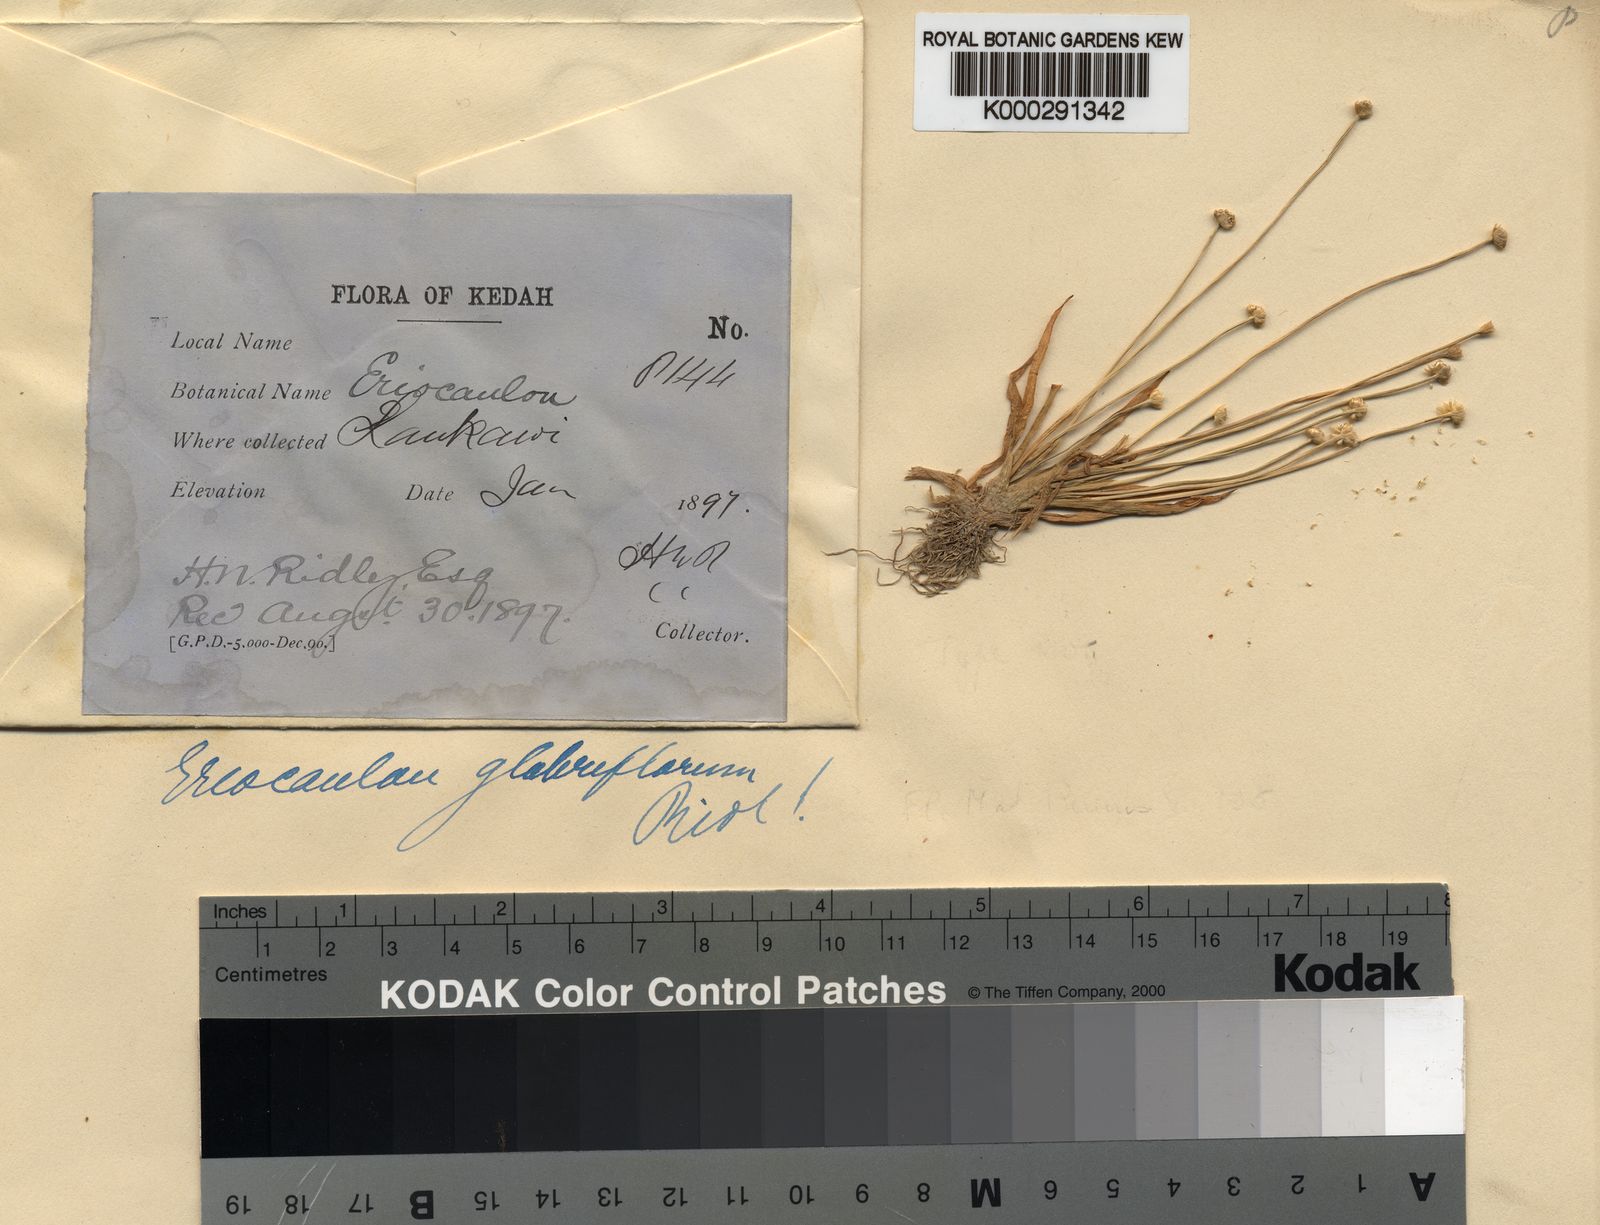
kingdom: Plantae
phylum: Tracheophyta
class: Liliopsida
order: Poales
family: Eriocaulaceae
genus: Eriocaulon
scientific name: Eriocaulon truncatum
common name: Short pipe-wort
